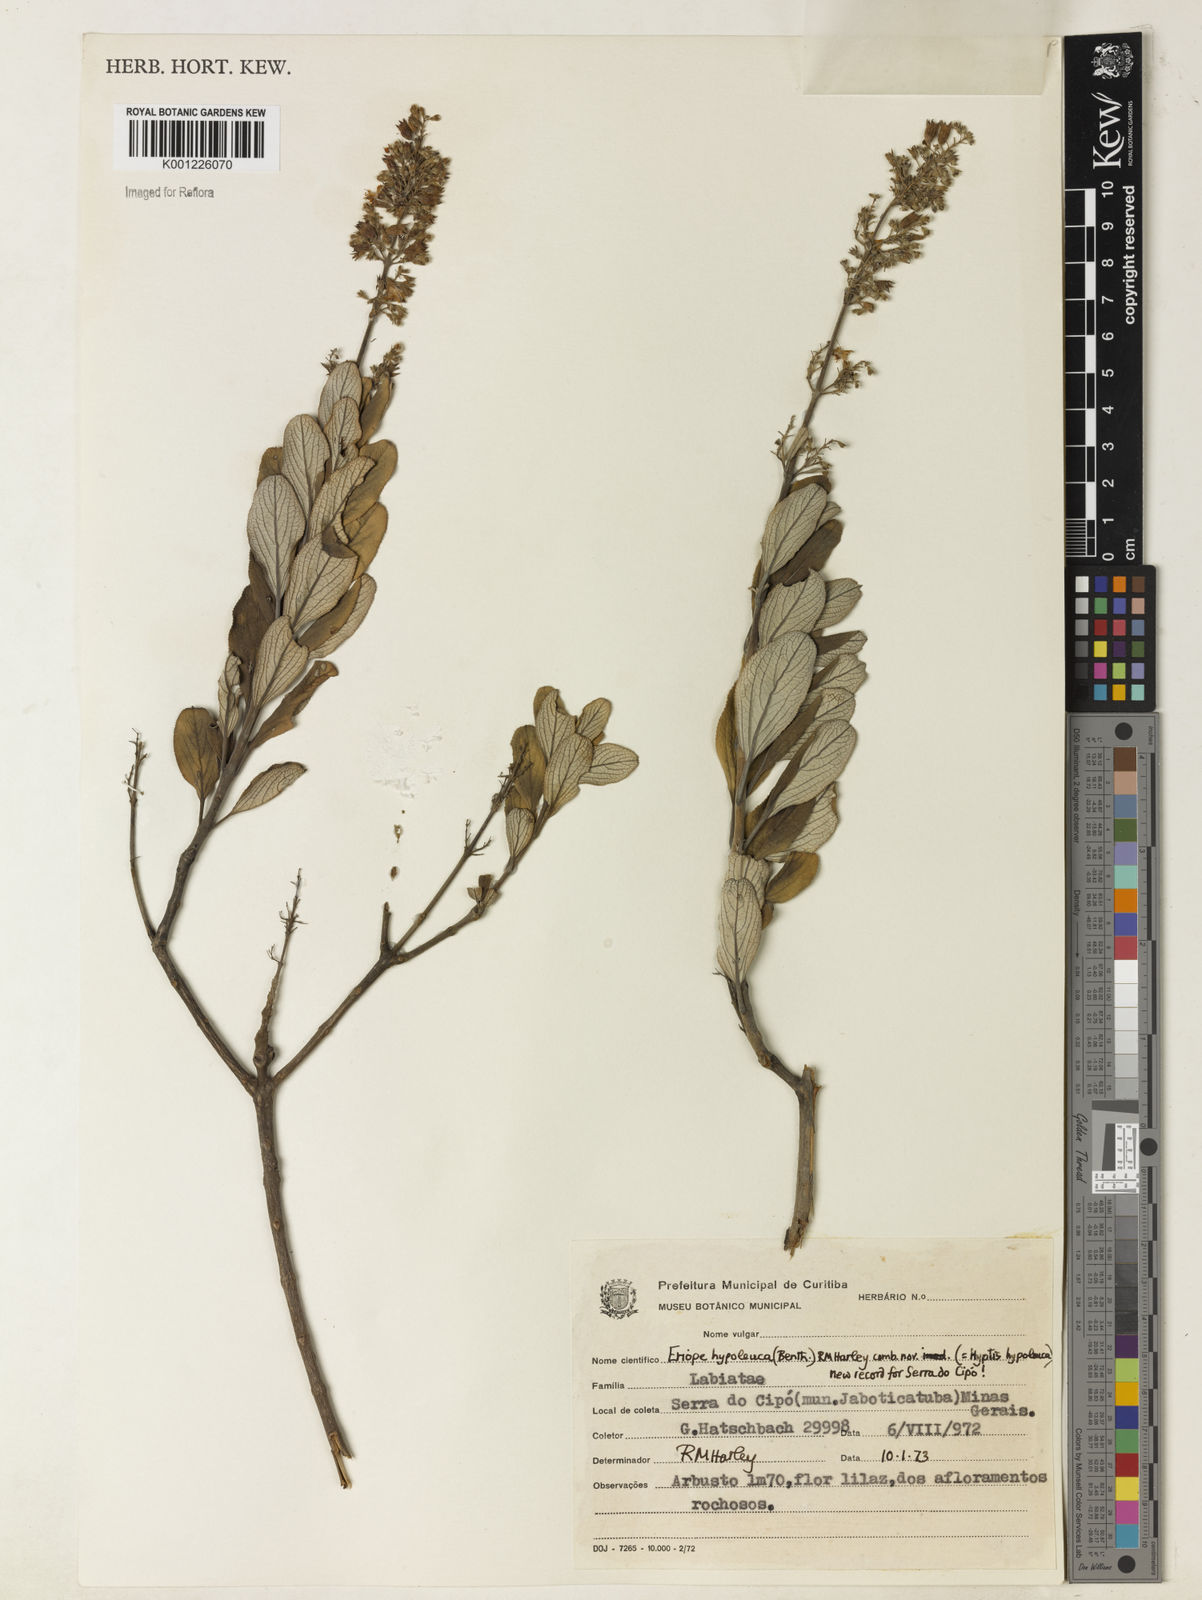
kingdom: Plantae
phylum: Tracheophyta
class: Magnoliopsida
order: Lamiales
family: Lamiaceae
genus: Eriope
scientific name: Eriope hypoleuca
